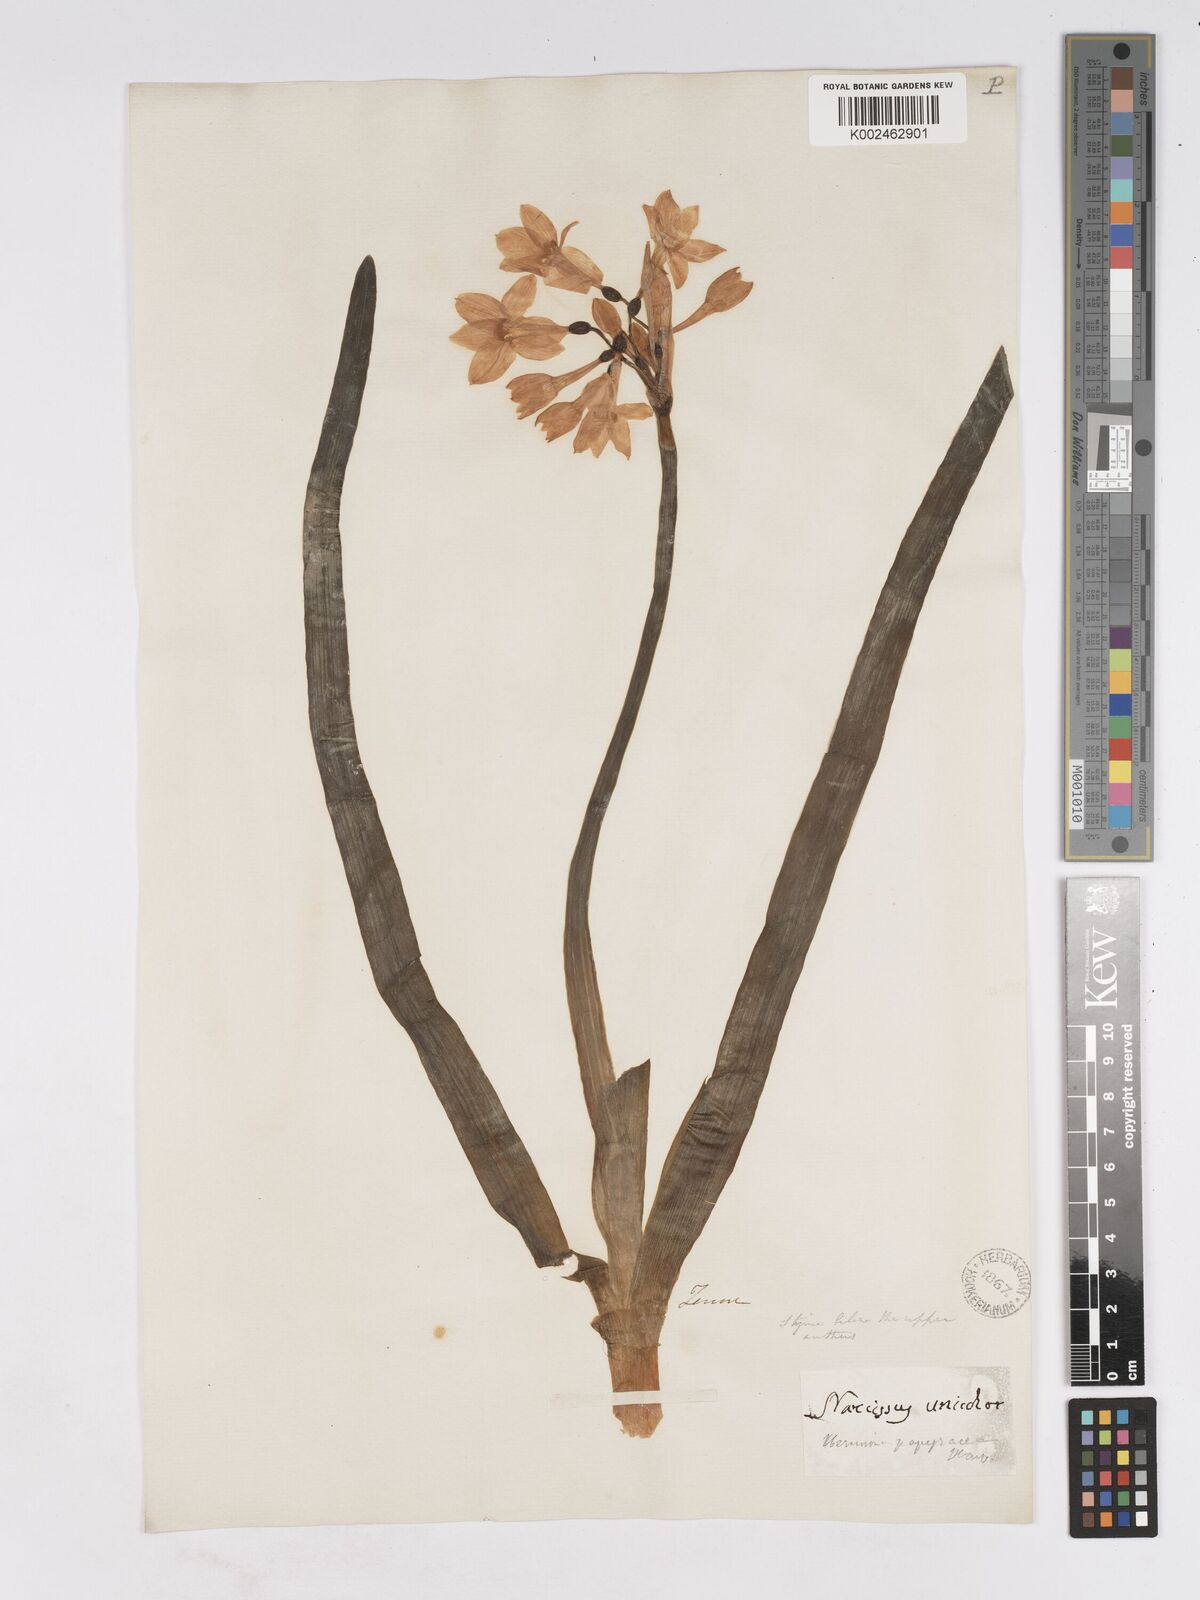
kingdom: Plantae
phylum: Tracheophyta
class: Liliopsida
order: Asparagales
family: Amaryllidaceae
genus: Narcissus
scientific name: Narcissus papyraceus
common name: Paper-white daffodil
